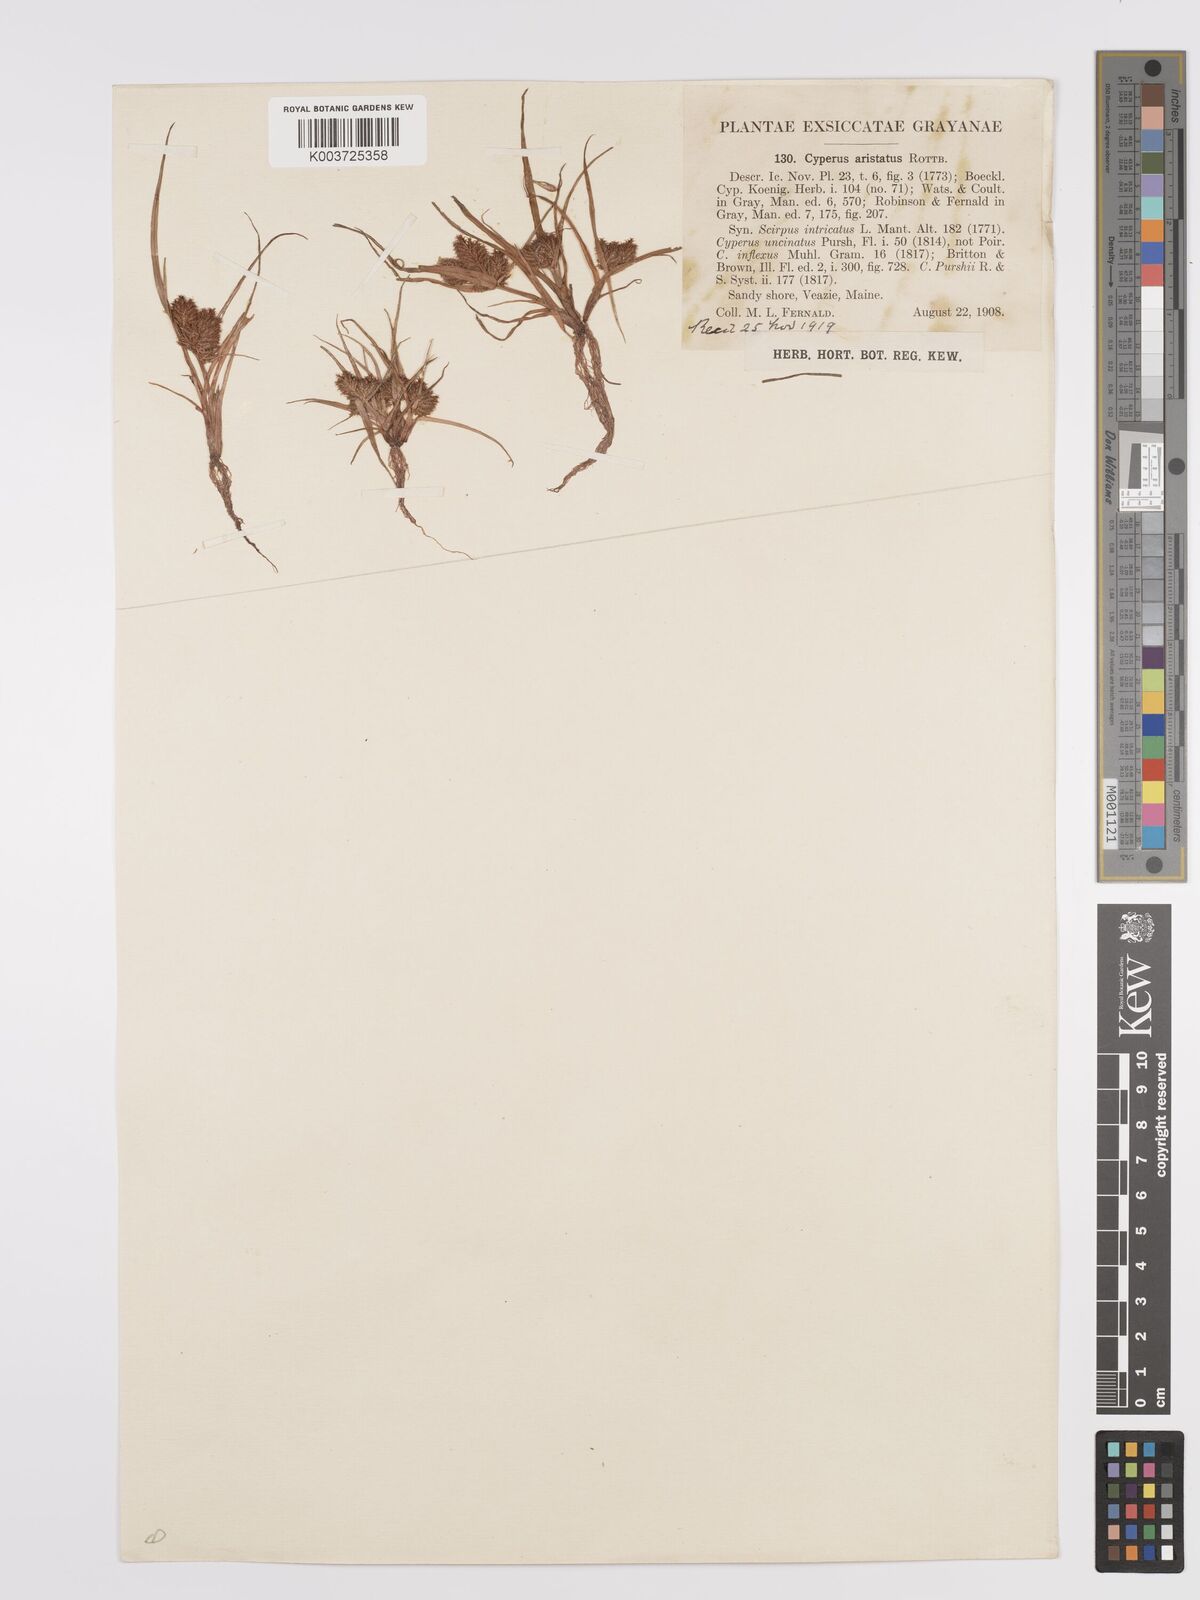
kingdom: Plantae
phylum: Tracheophyta
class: Liliopsida
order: Poales
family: Cyperaceae
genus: Cyperus
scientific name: Cyperus squarrosus
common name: Awned cyperus
